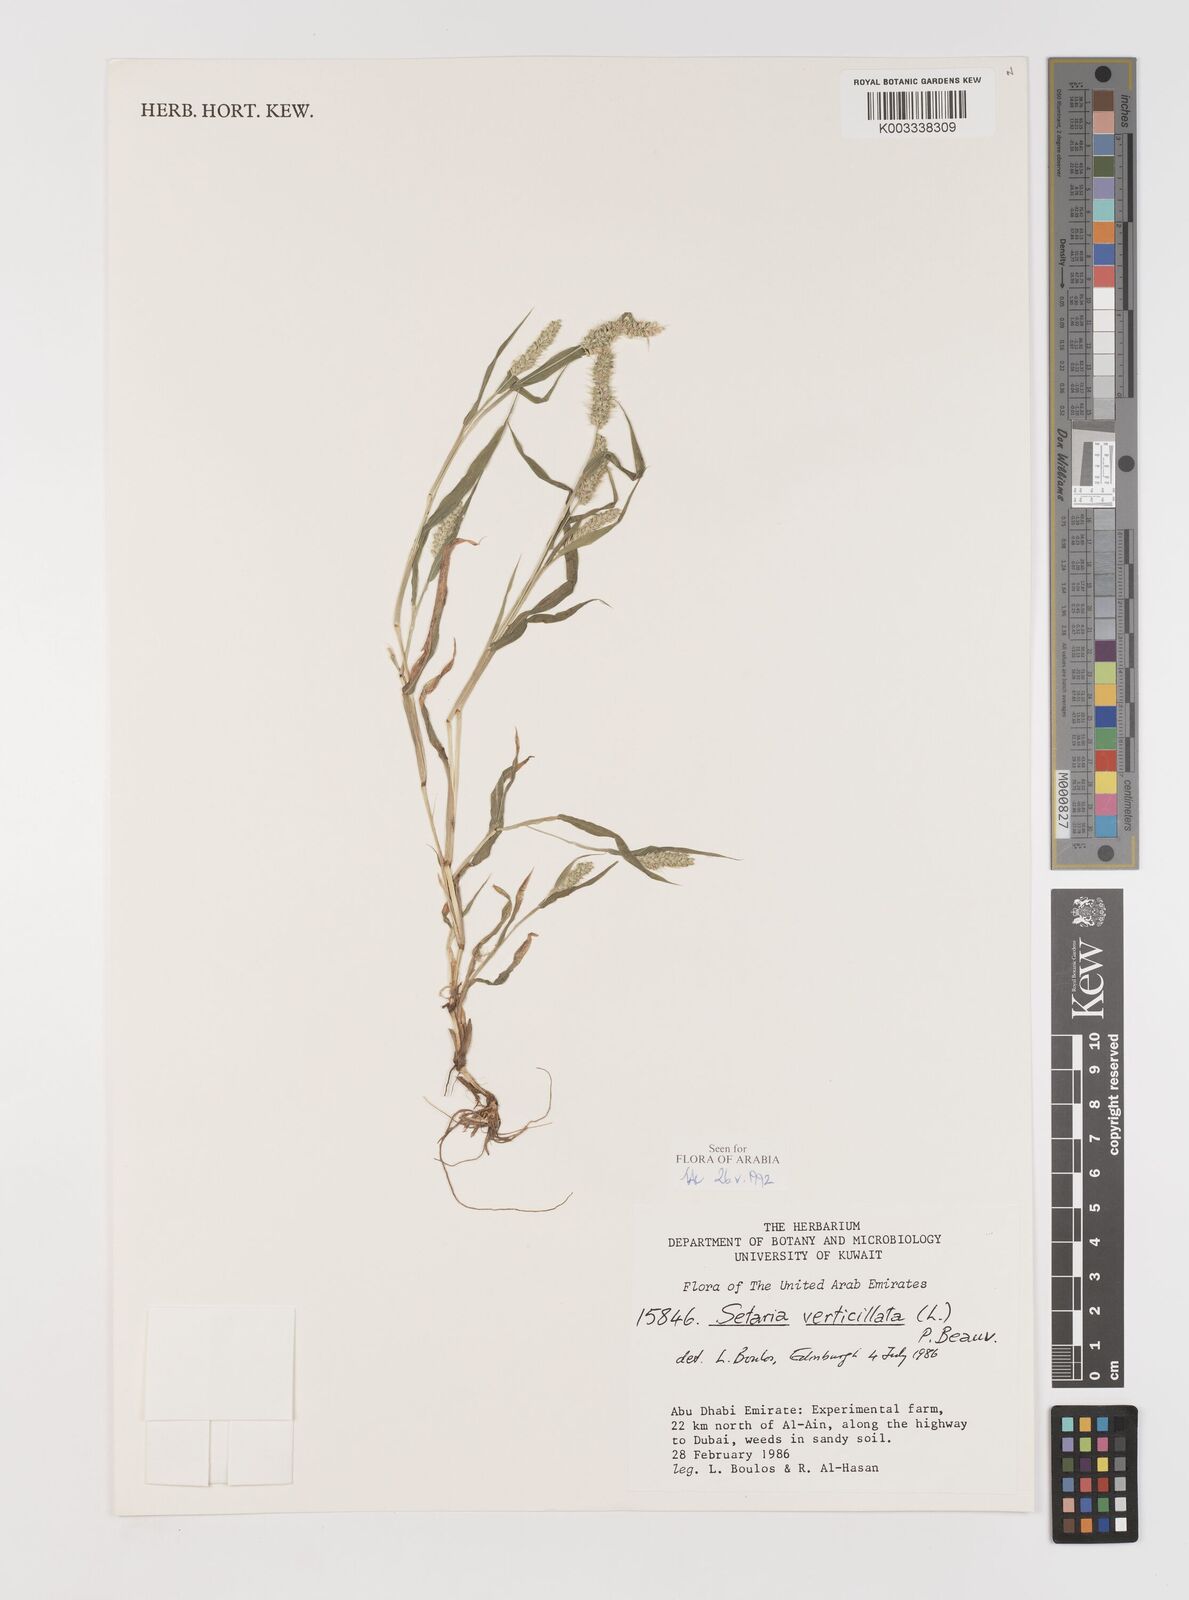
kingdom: Plantae
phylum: Tracheophyta
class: Liliopsida
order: Poales
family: Poaceae
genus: Setaria
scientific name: Setaria grisebachii
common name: Grisebach's bristle grass
